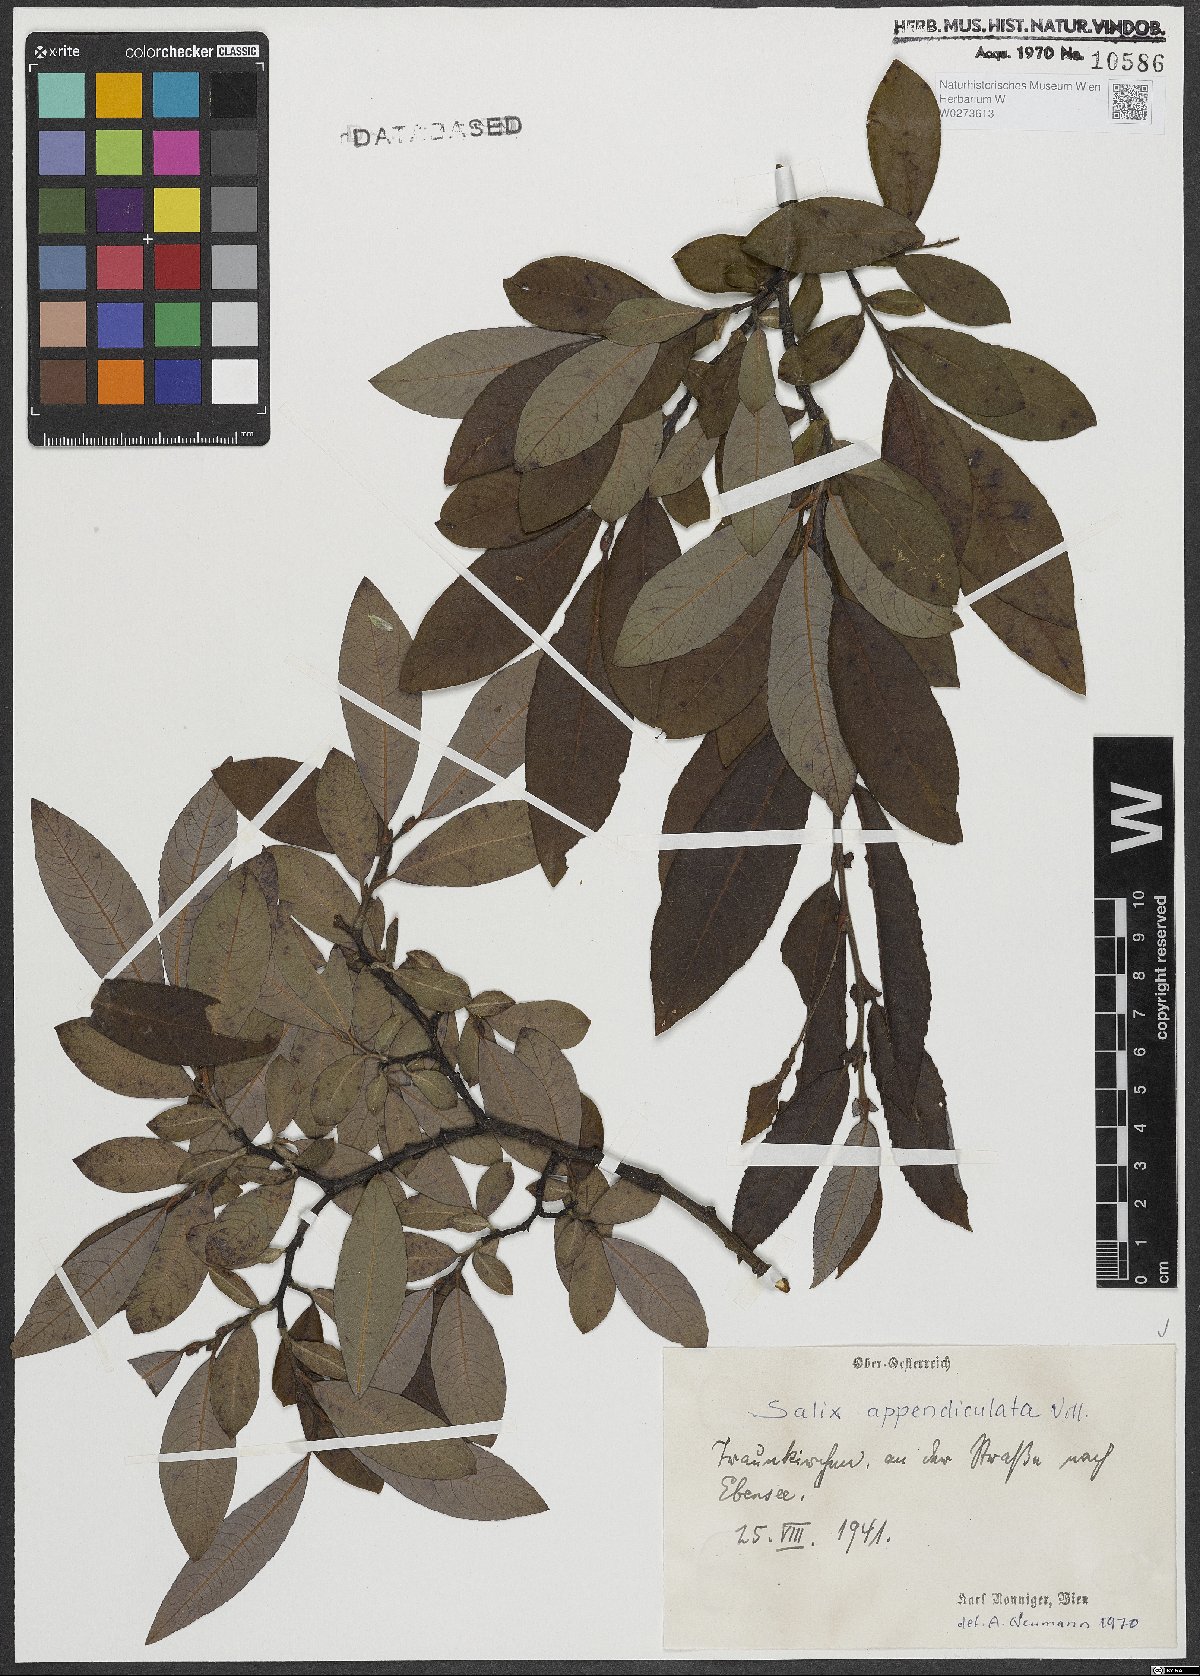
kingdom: Plantae
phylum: Tracheophyta
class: Magnoliopsida
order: Malpighiales
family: Salicaceae
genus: Salix
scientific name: Salix appendiculata
